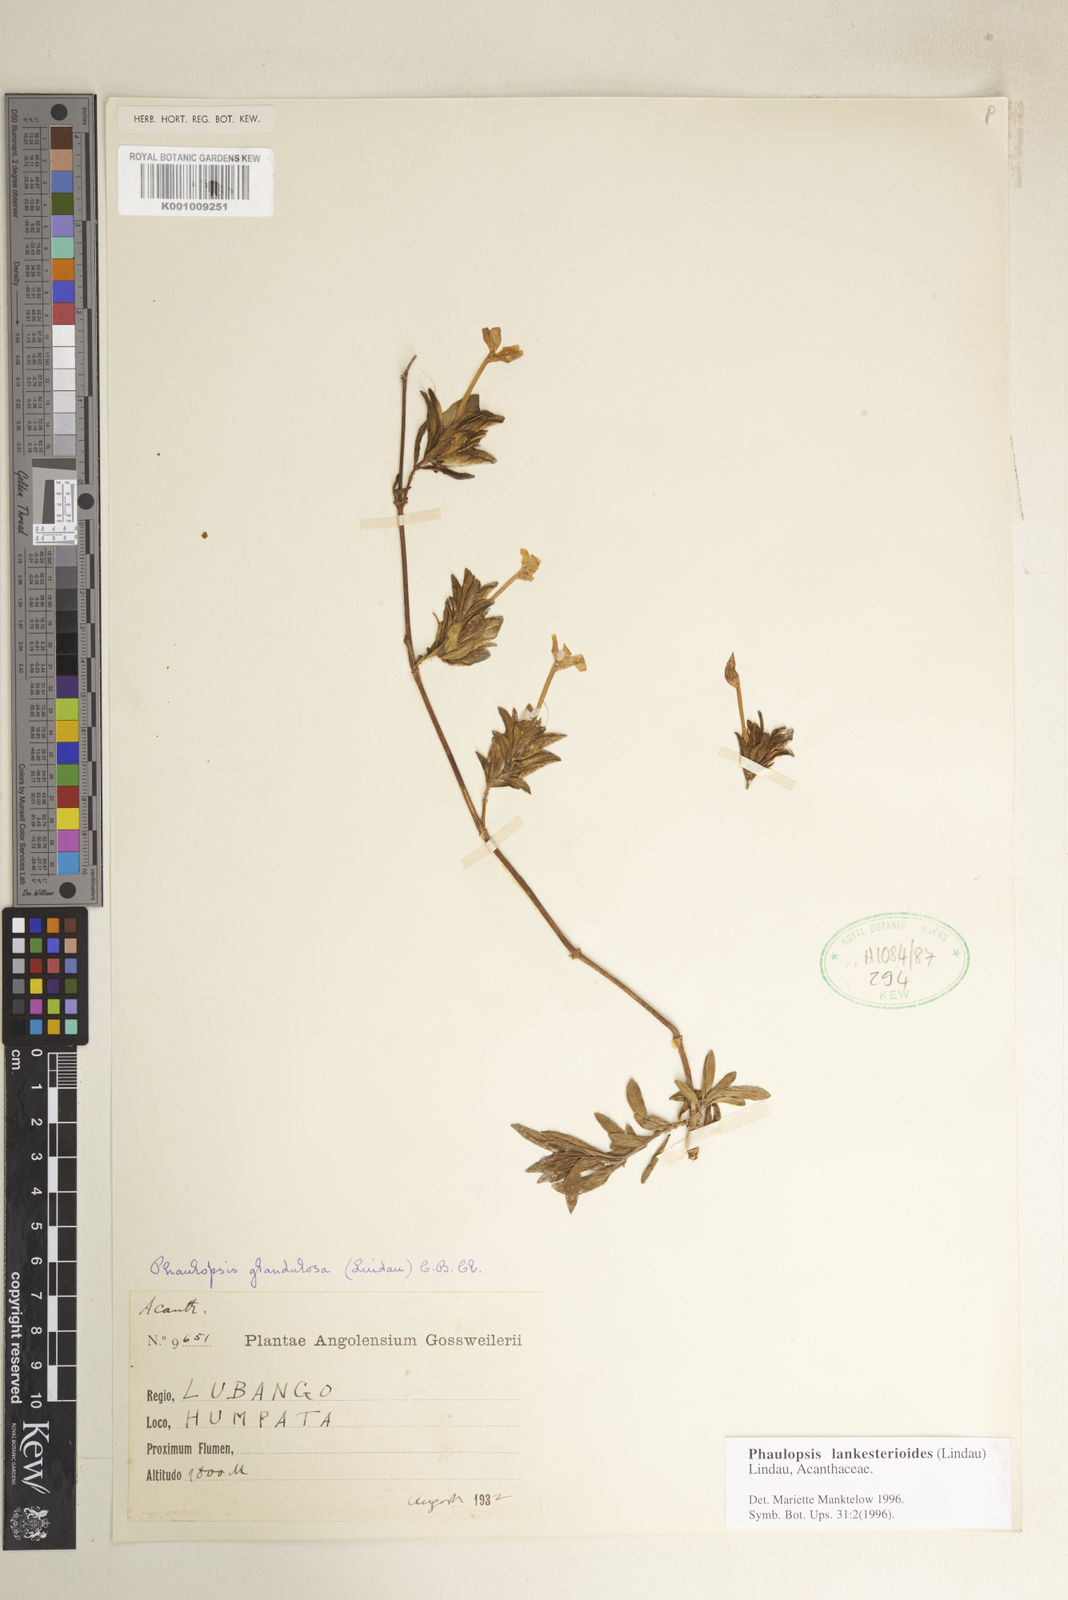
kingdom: Plantae
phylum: Tracheophyta
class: Magnoliopsida
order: Lamiales
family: Acanthaceae
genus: Phaulopsis
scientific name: Phaulopsis lankesterioides
